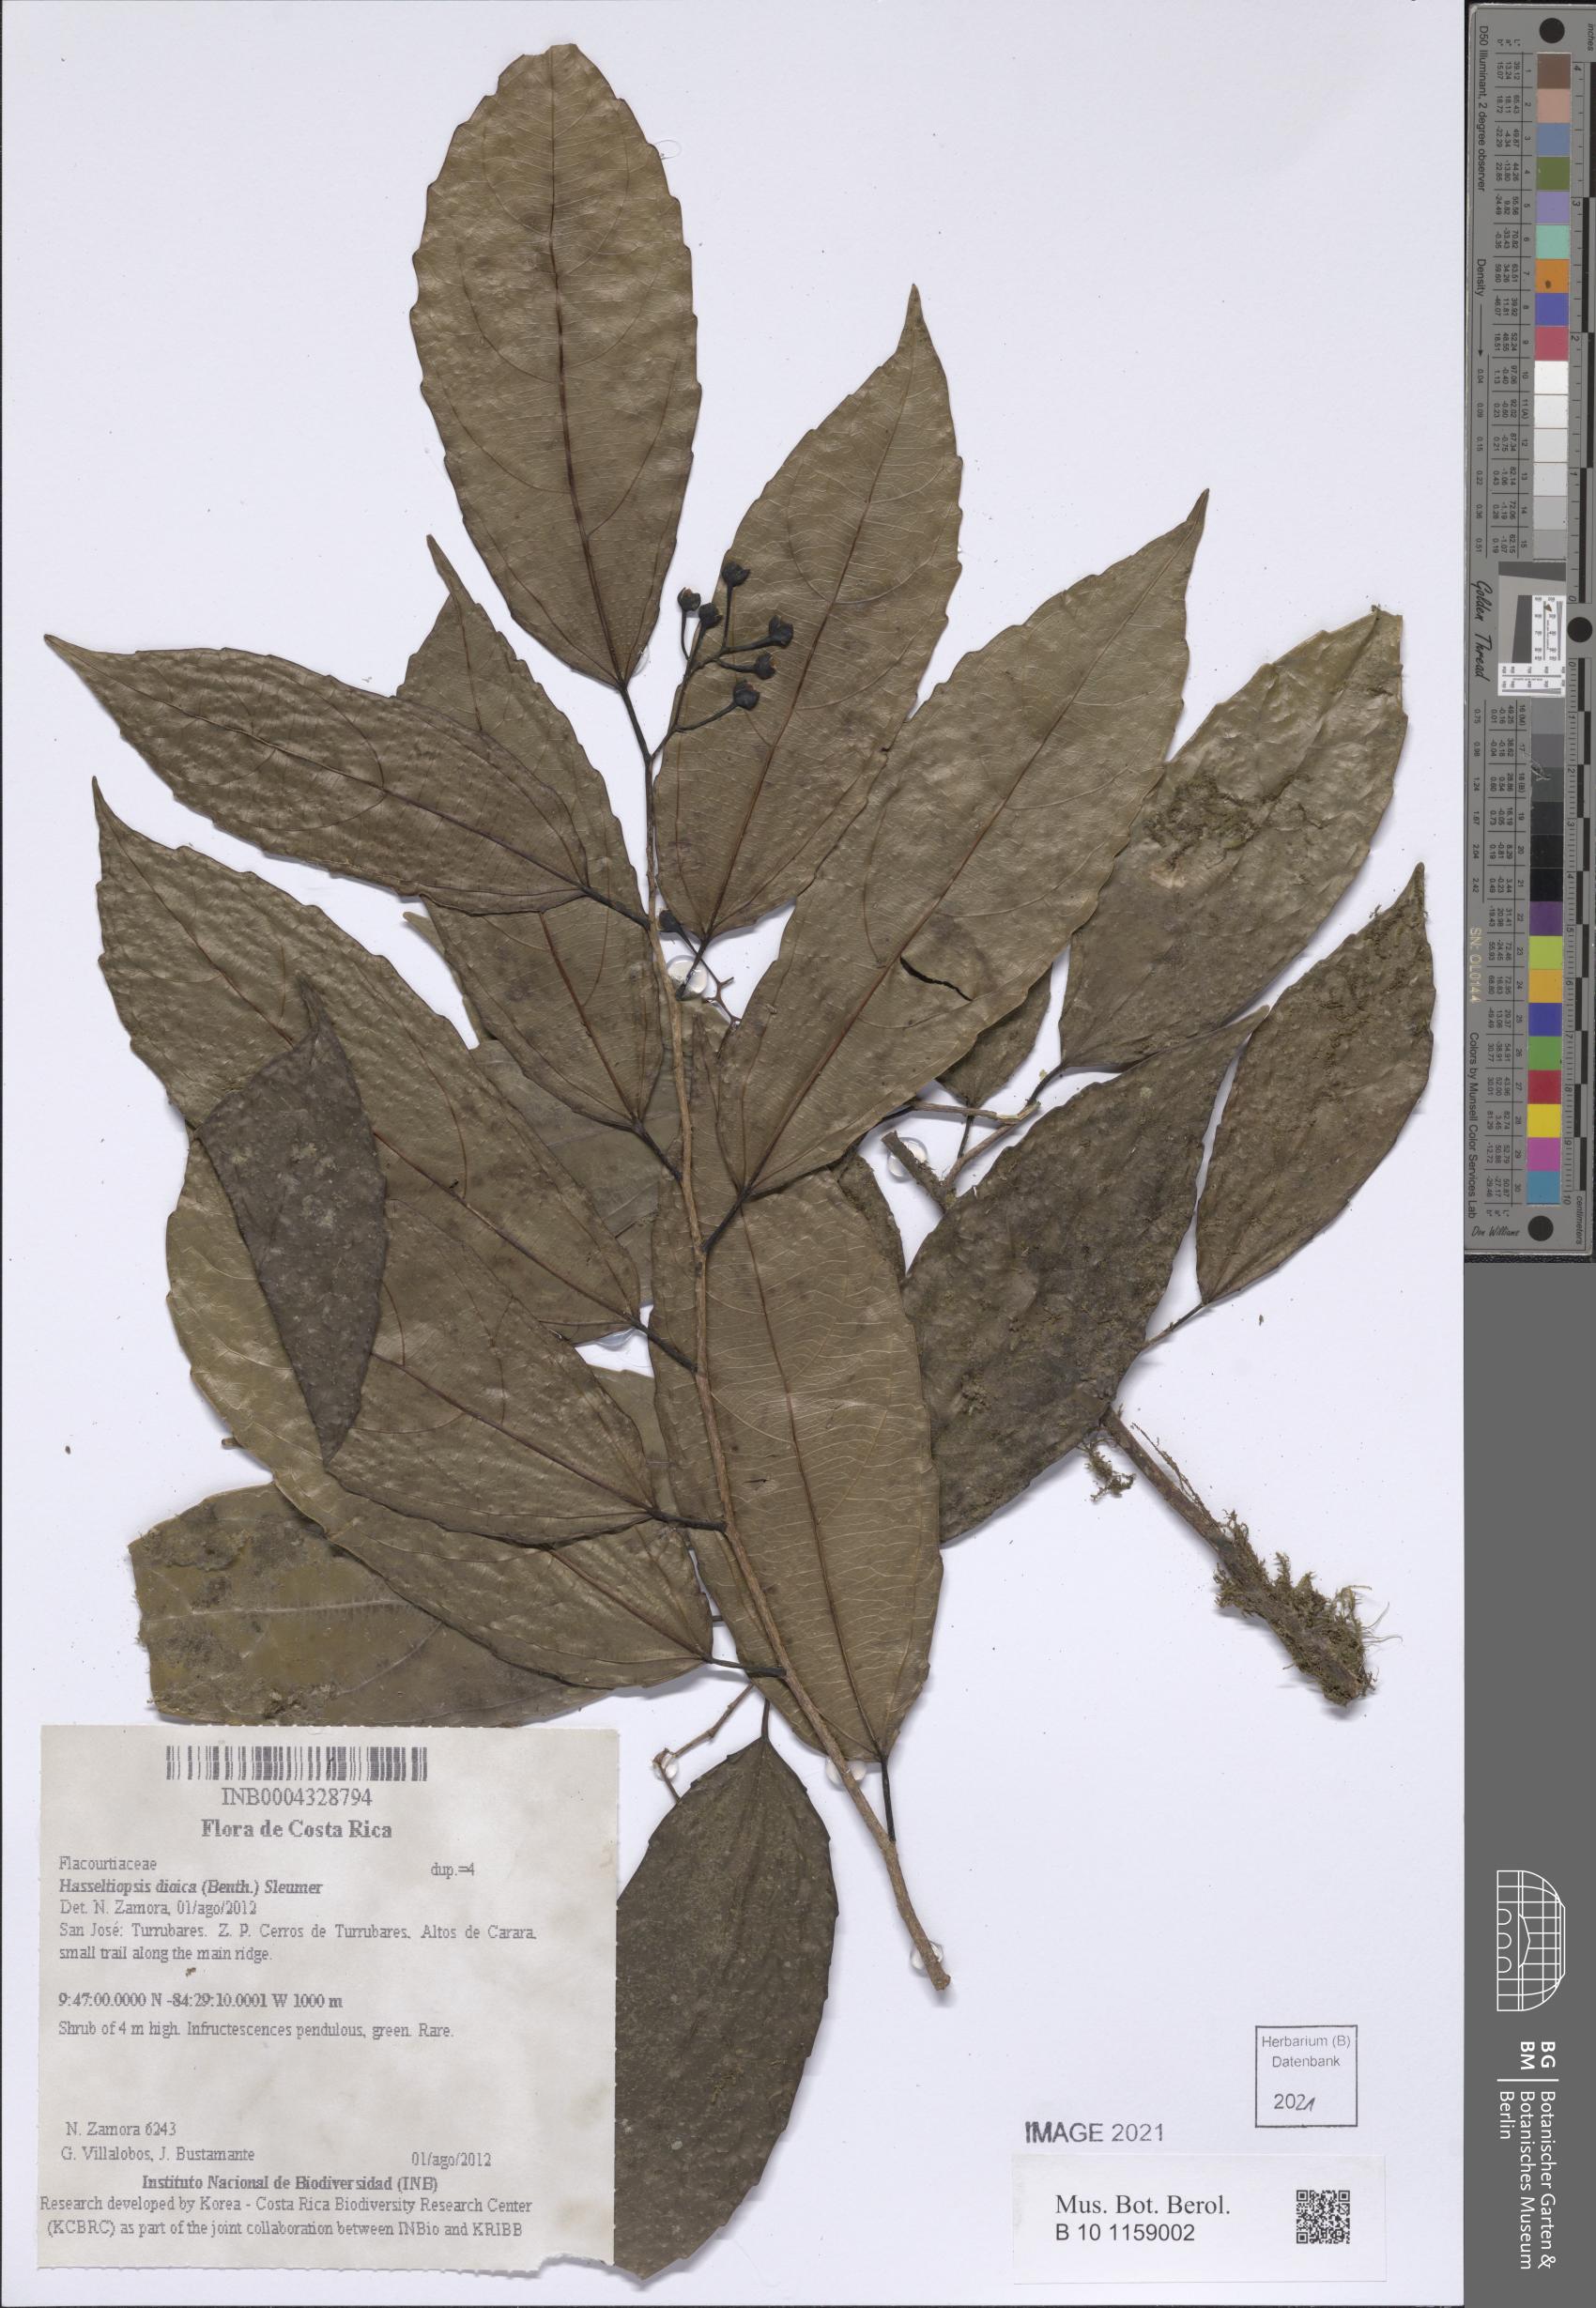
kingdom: Plantae
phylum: Tracheophyta
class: Magnoliopsida
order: Malpighiales
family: Salicaceae
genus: Hasseltiopsis
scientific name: Hasseltiopsis dioica
